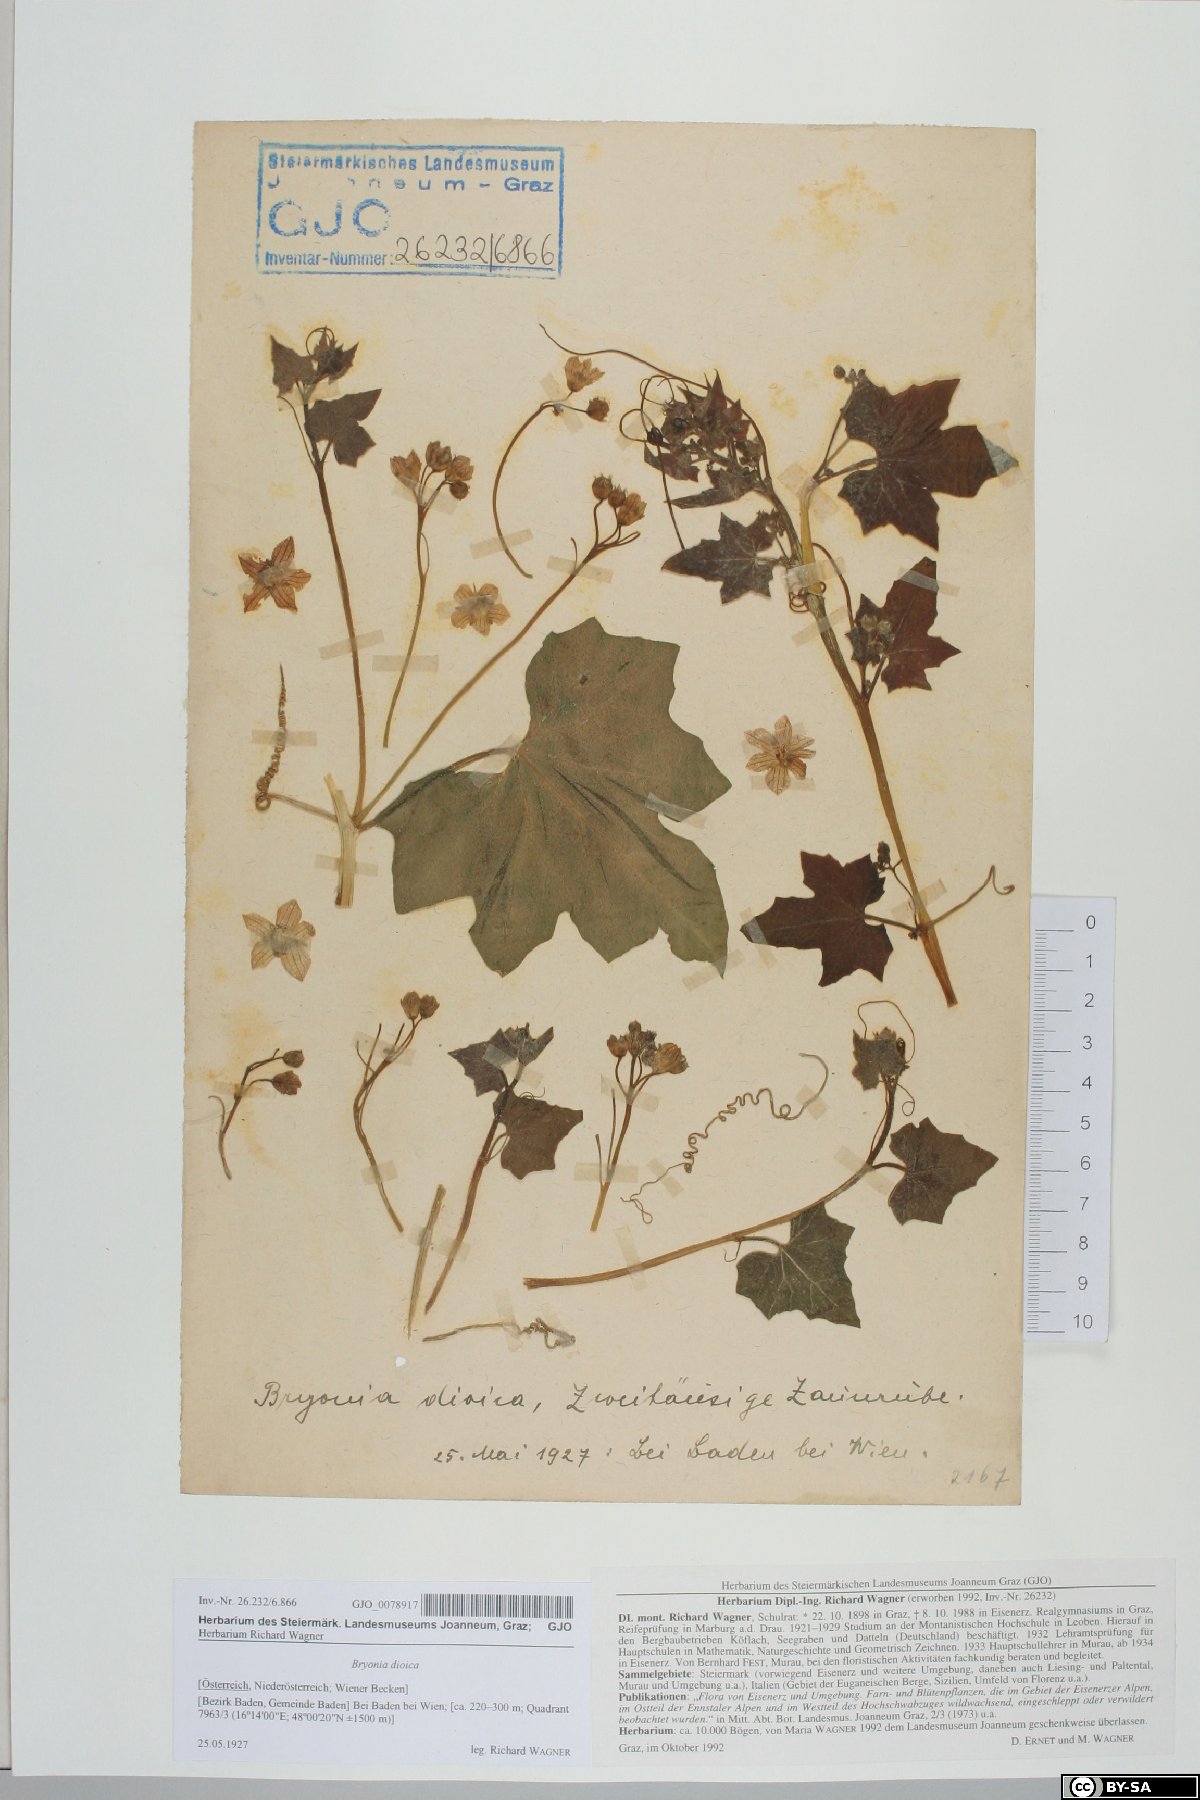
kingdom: Plantae
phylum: Tracheophyta
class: Magnoliopsida
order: Cucurbitales
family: Cucurbitaceae
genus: Bryonia
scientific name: Bryonia dioica
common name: White bryony
